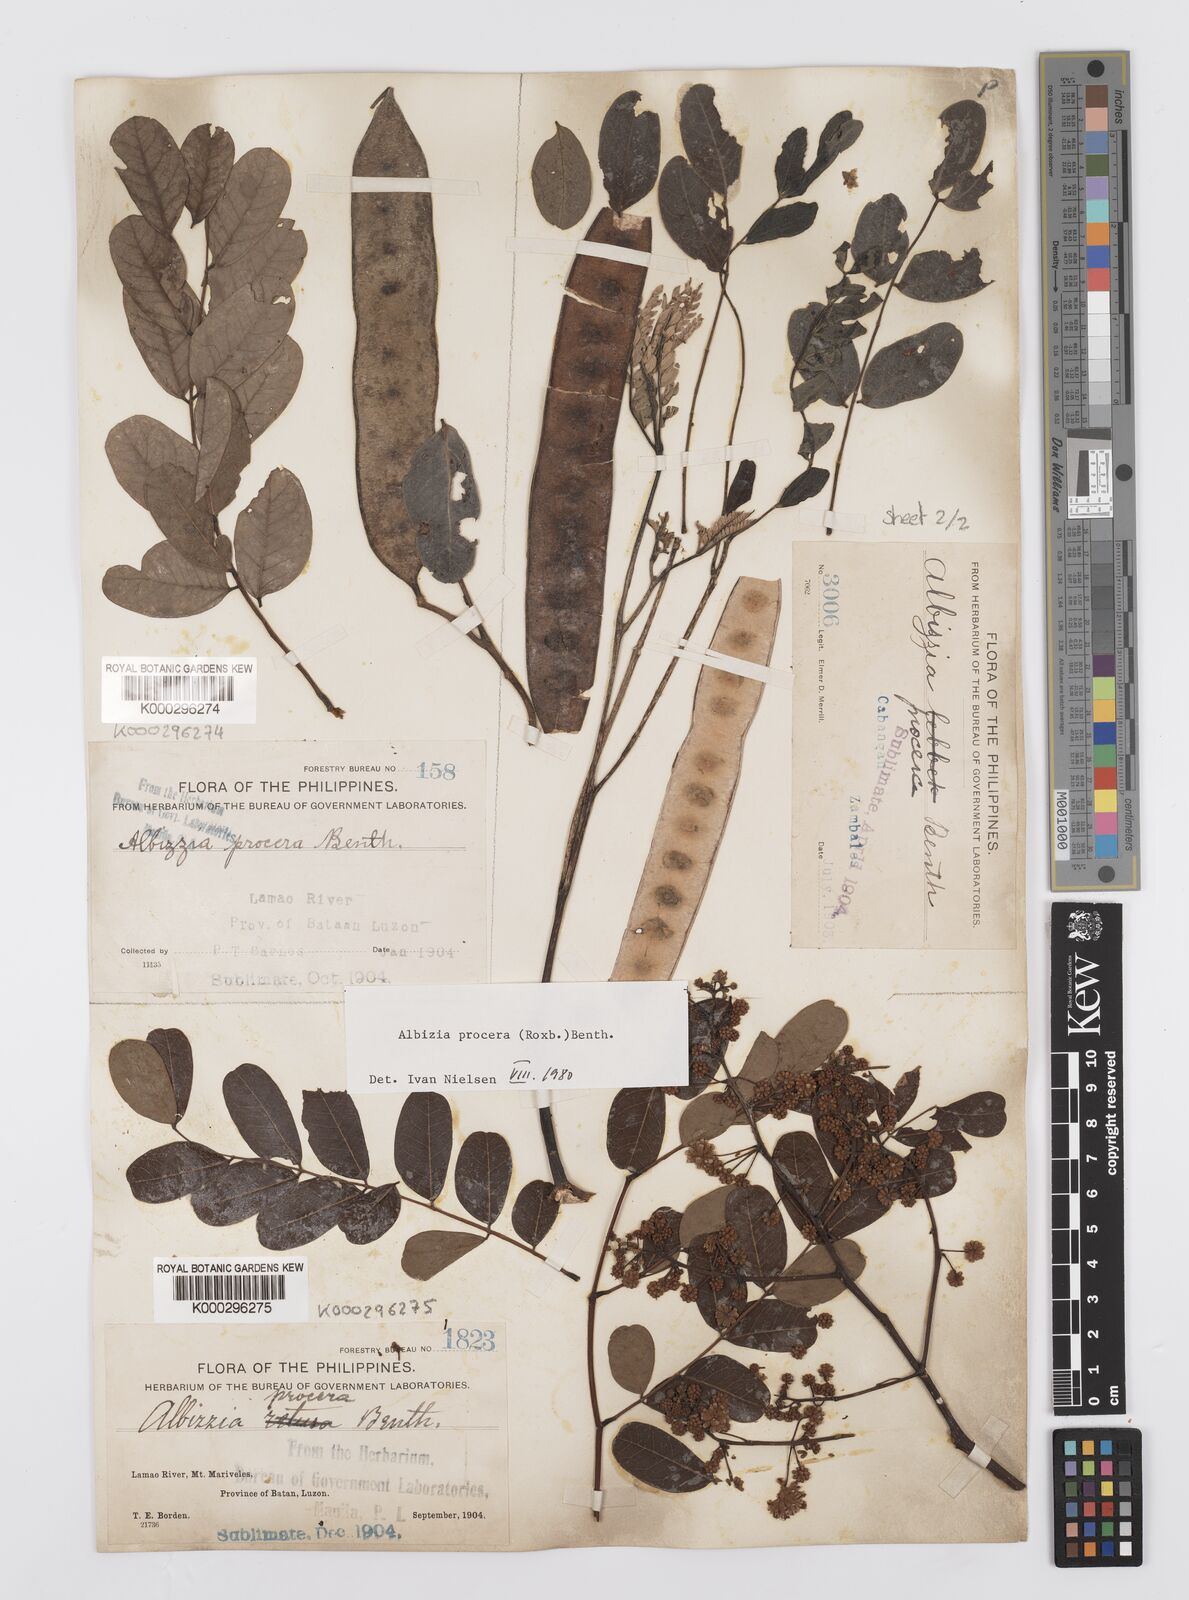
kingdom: Plantae
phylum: Tracheophyta
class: Magnoliopsida
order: Fabales
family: Fabaceae
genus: Albizia
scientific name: Albizia procera
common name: Tall albizia
